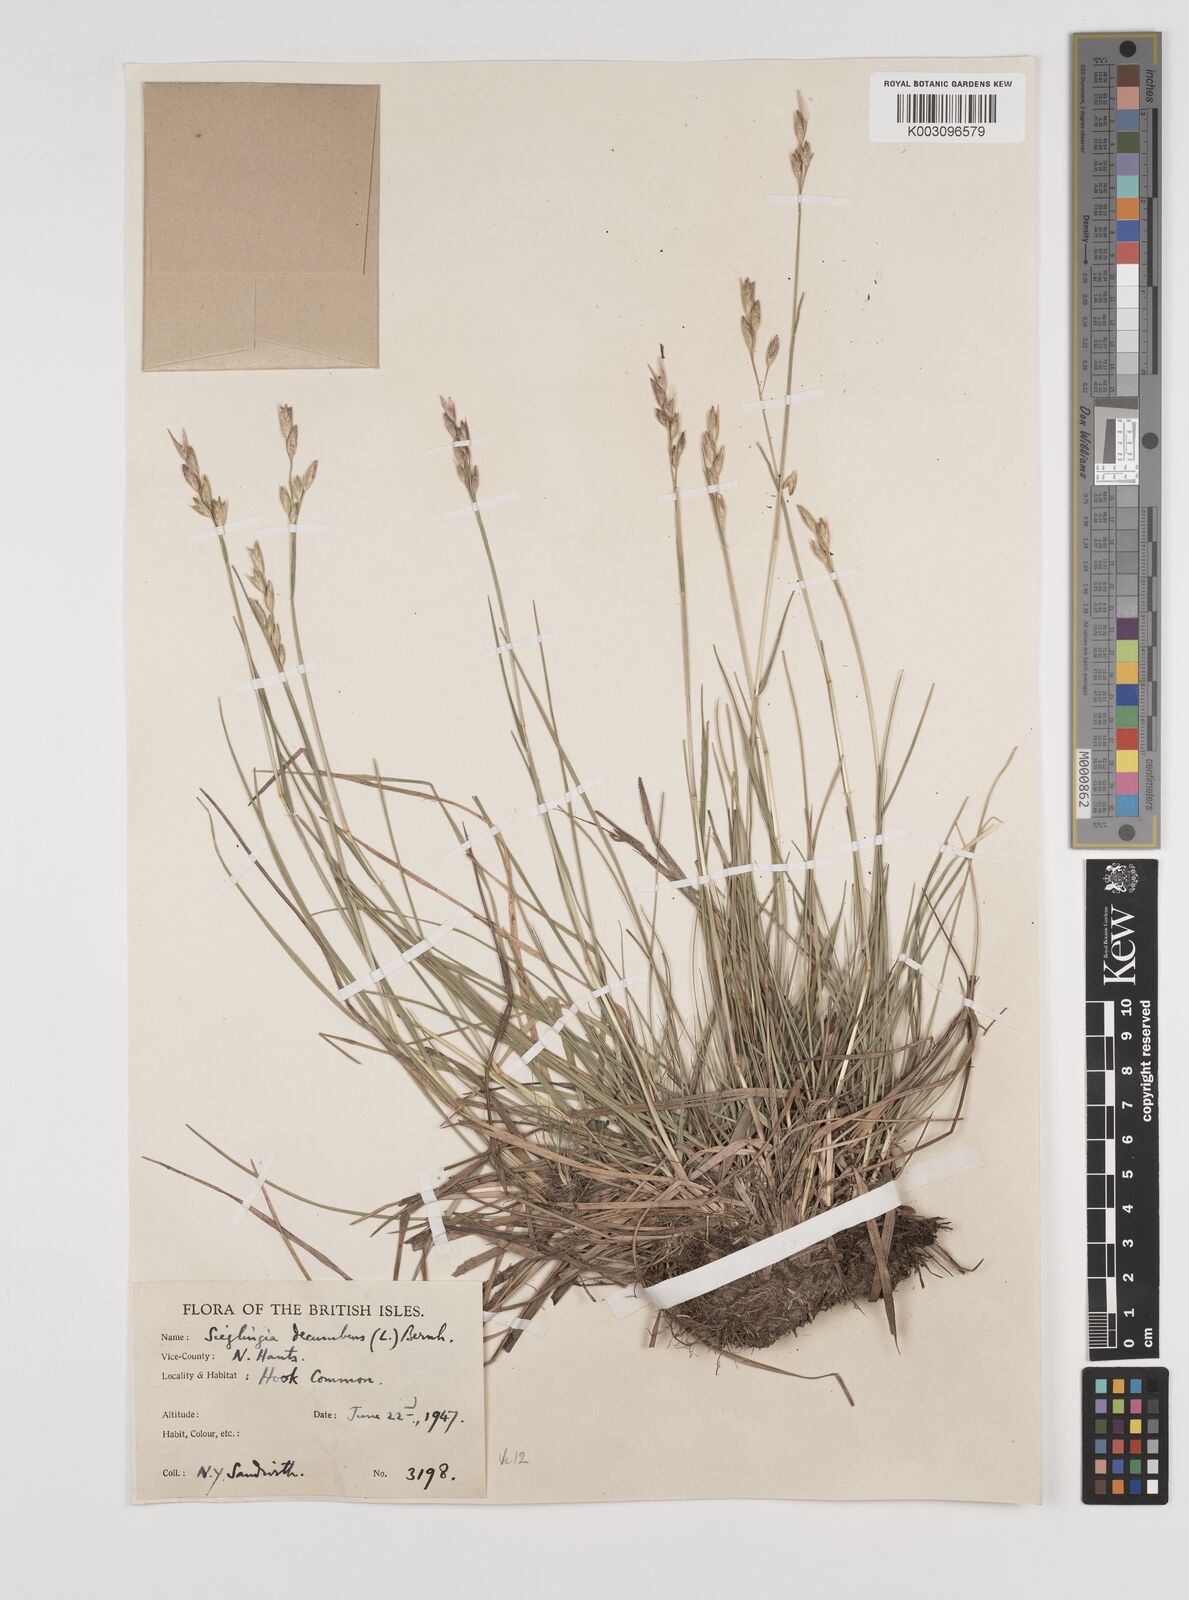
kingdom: Plantae
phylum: Tracheophyta
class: Liliopsida
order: Poales
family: Poaceae
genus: Danthonia
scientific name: Danthonia decumbens
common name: Common heathgrass
